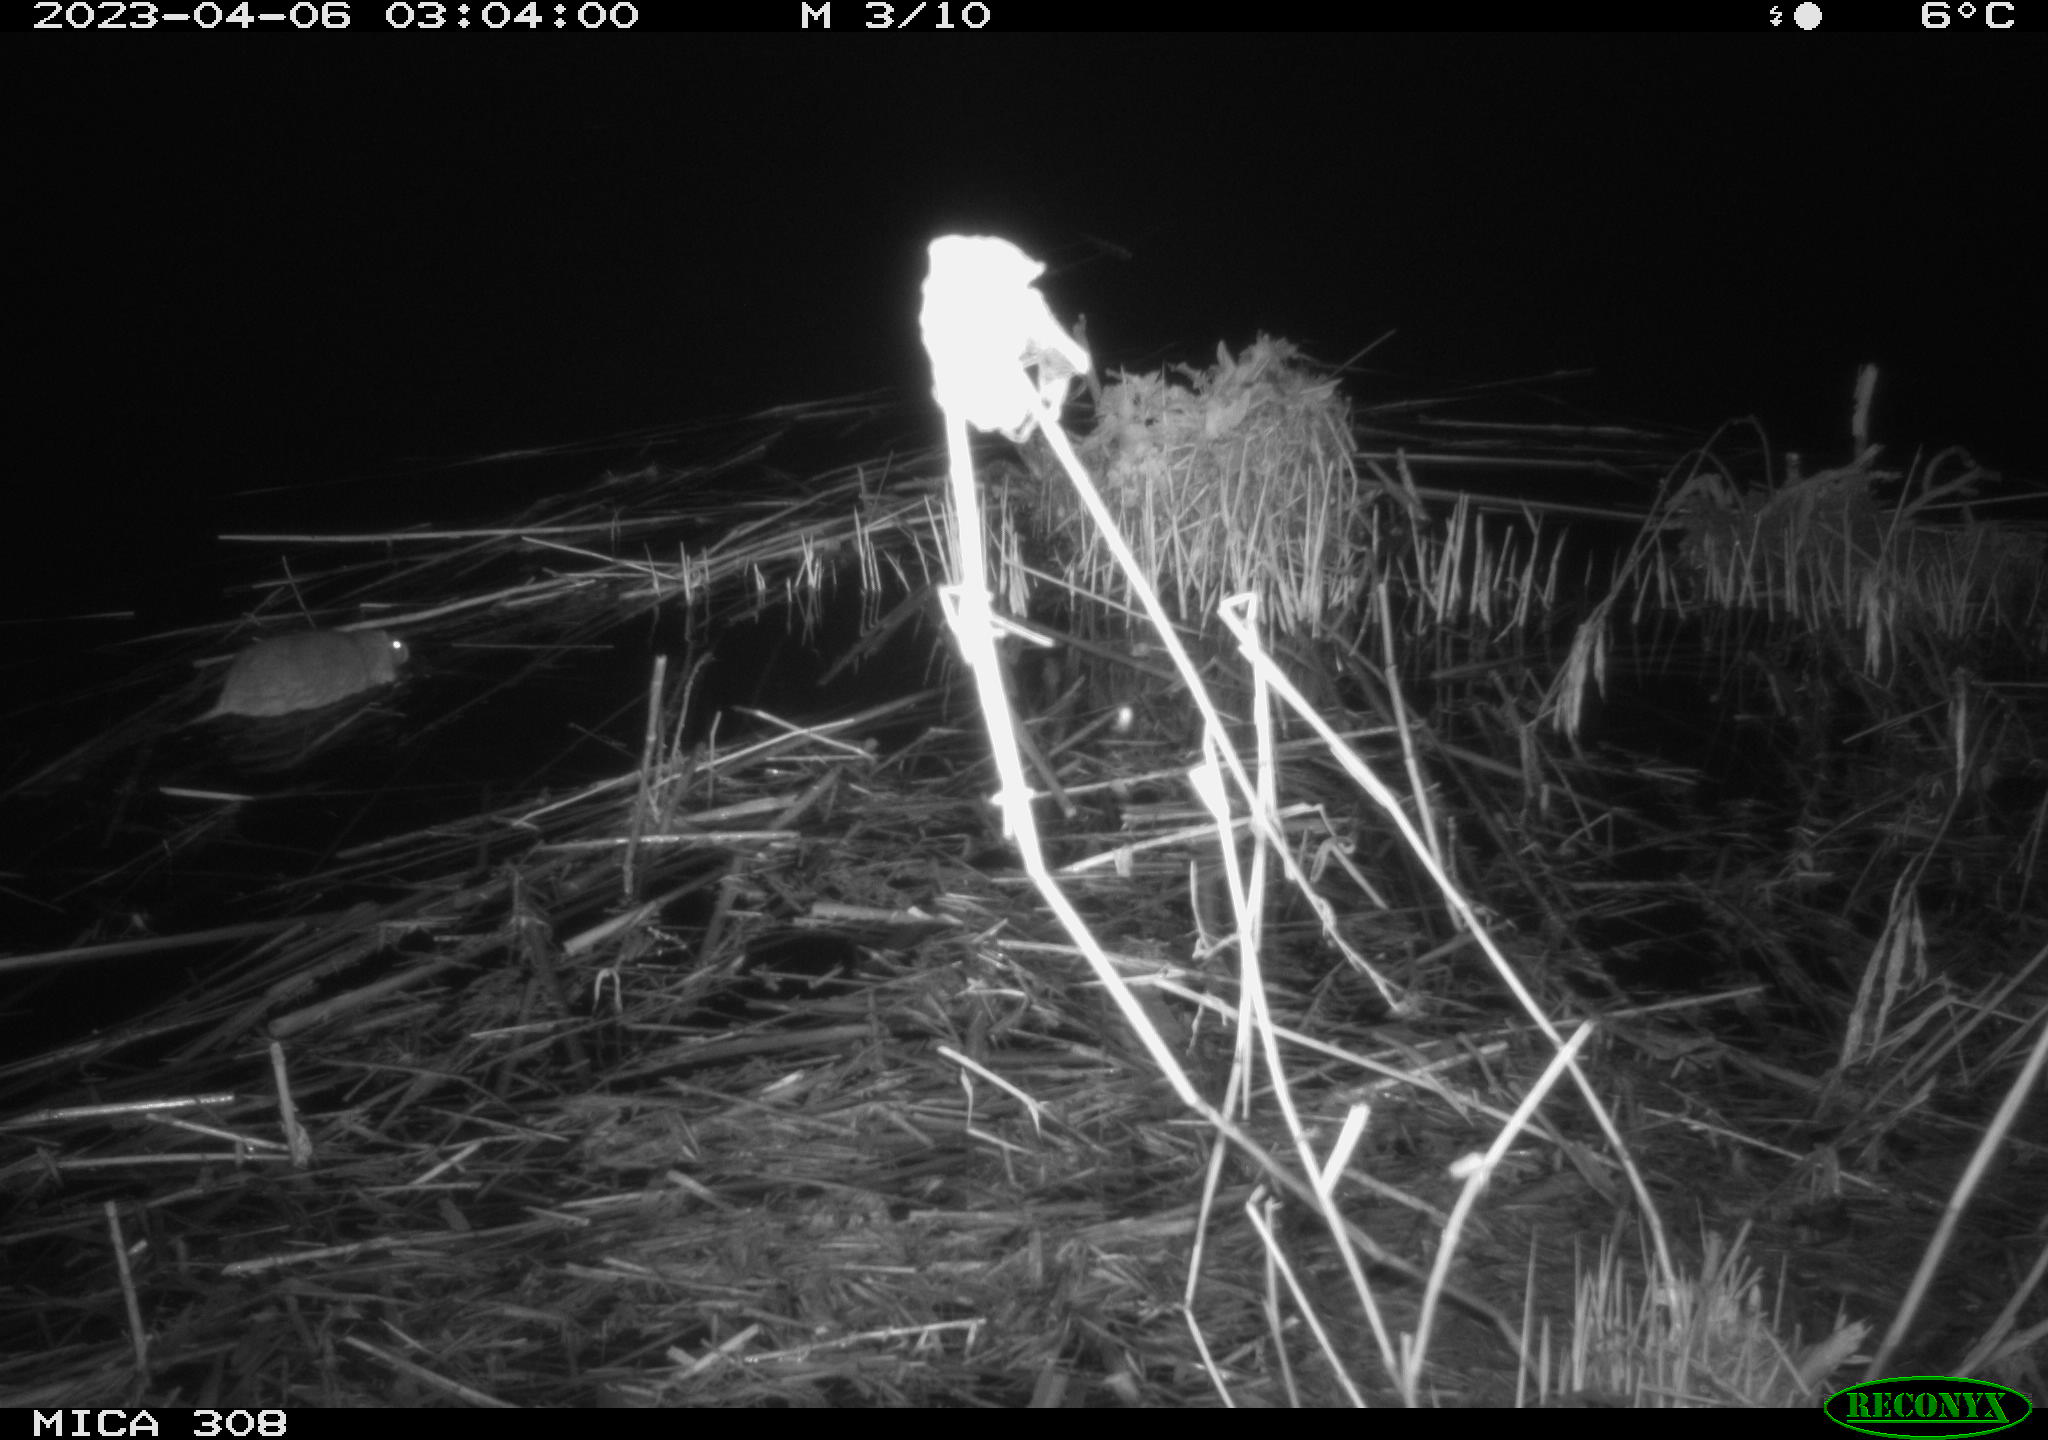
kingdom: Animalia
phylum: Chordata
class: Mammalia
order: Rodentia
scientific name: Rodentia
